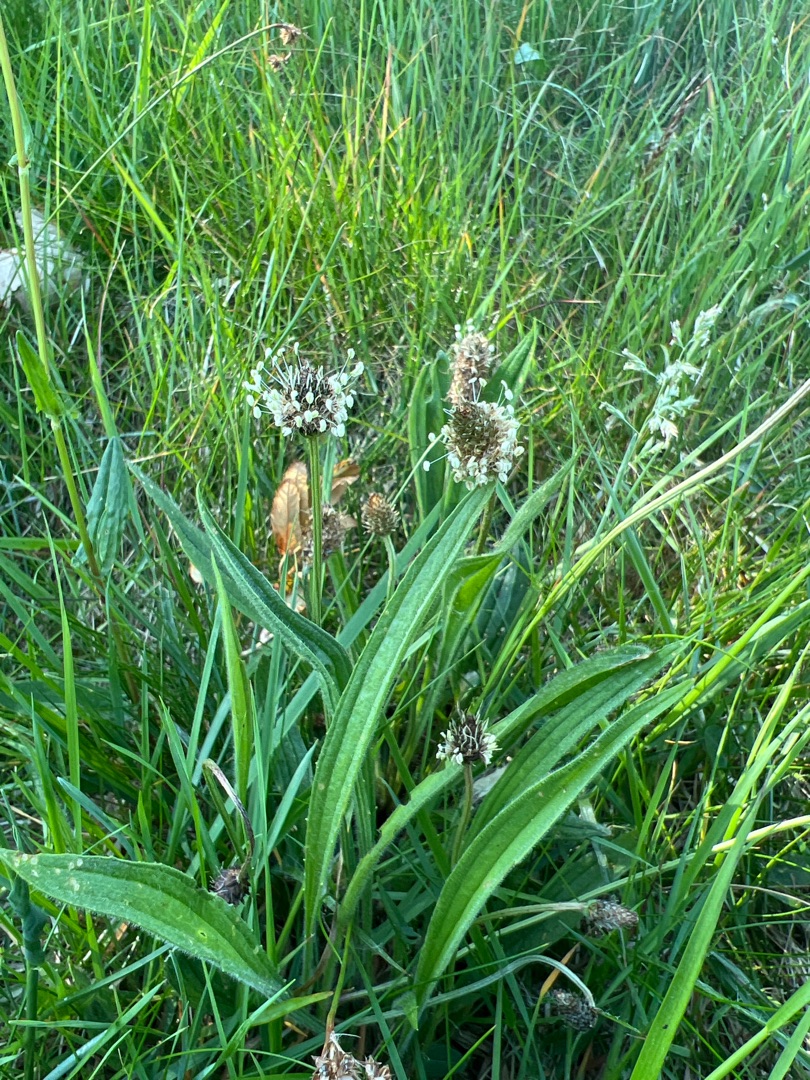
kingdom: Plantae
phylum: Tracheophyta
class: Magnoliopsida
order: Lamiales
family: Plantaginaceae
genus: Plantago
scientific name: Plantago lanceolata
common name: Lancet-vejbred
